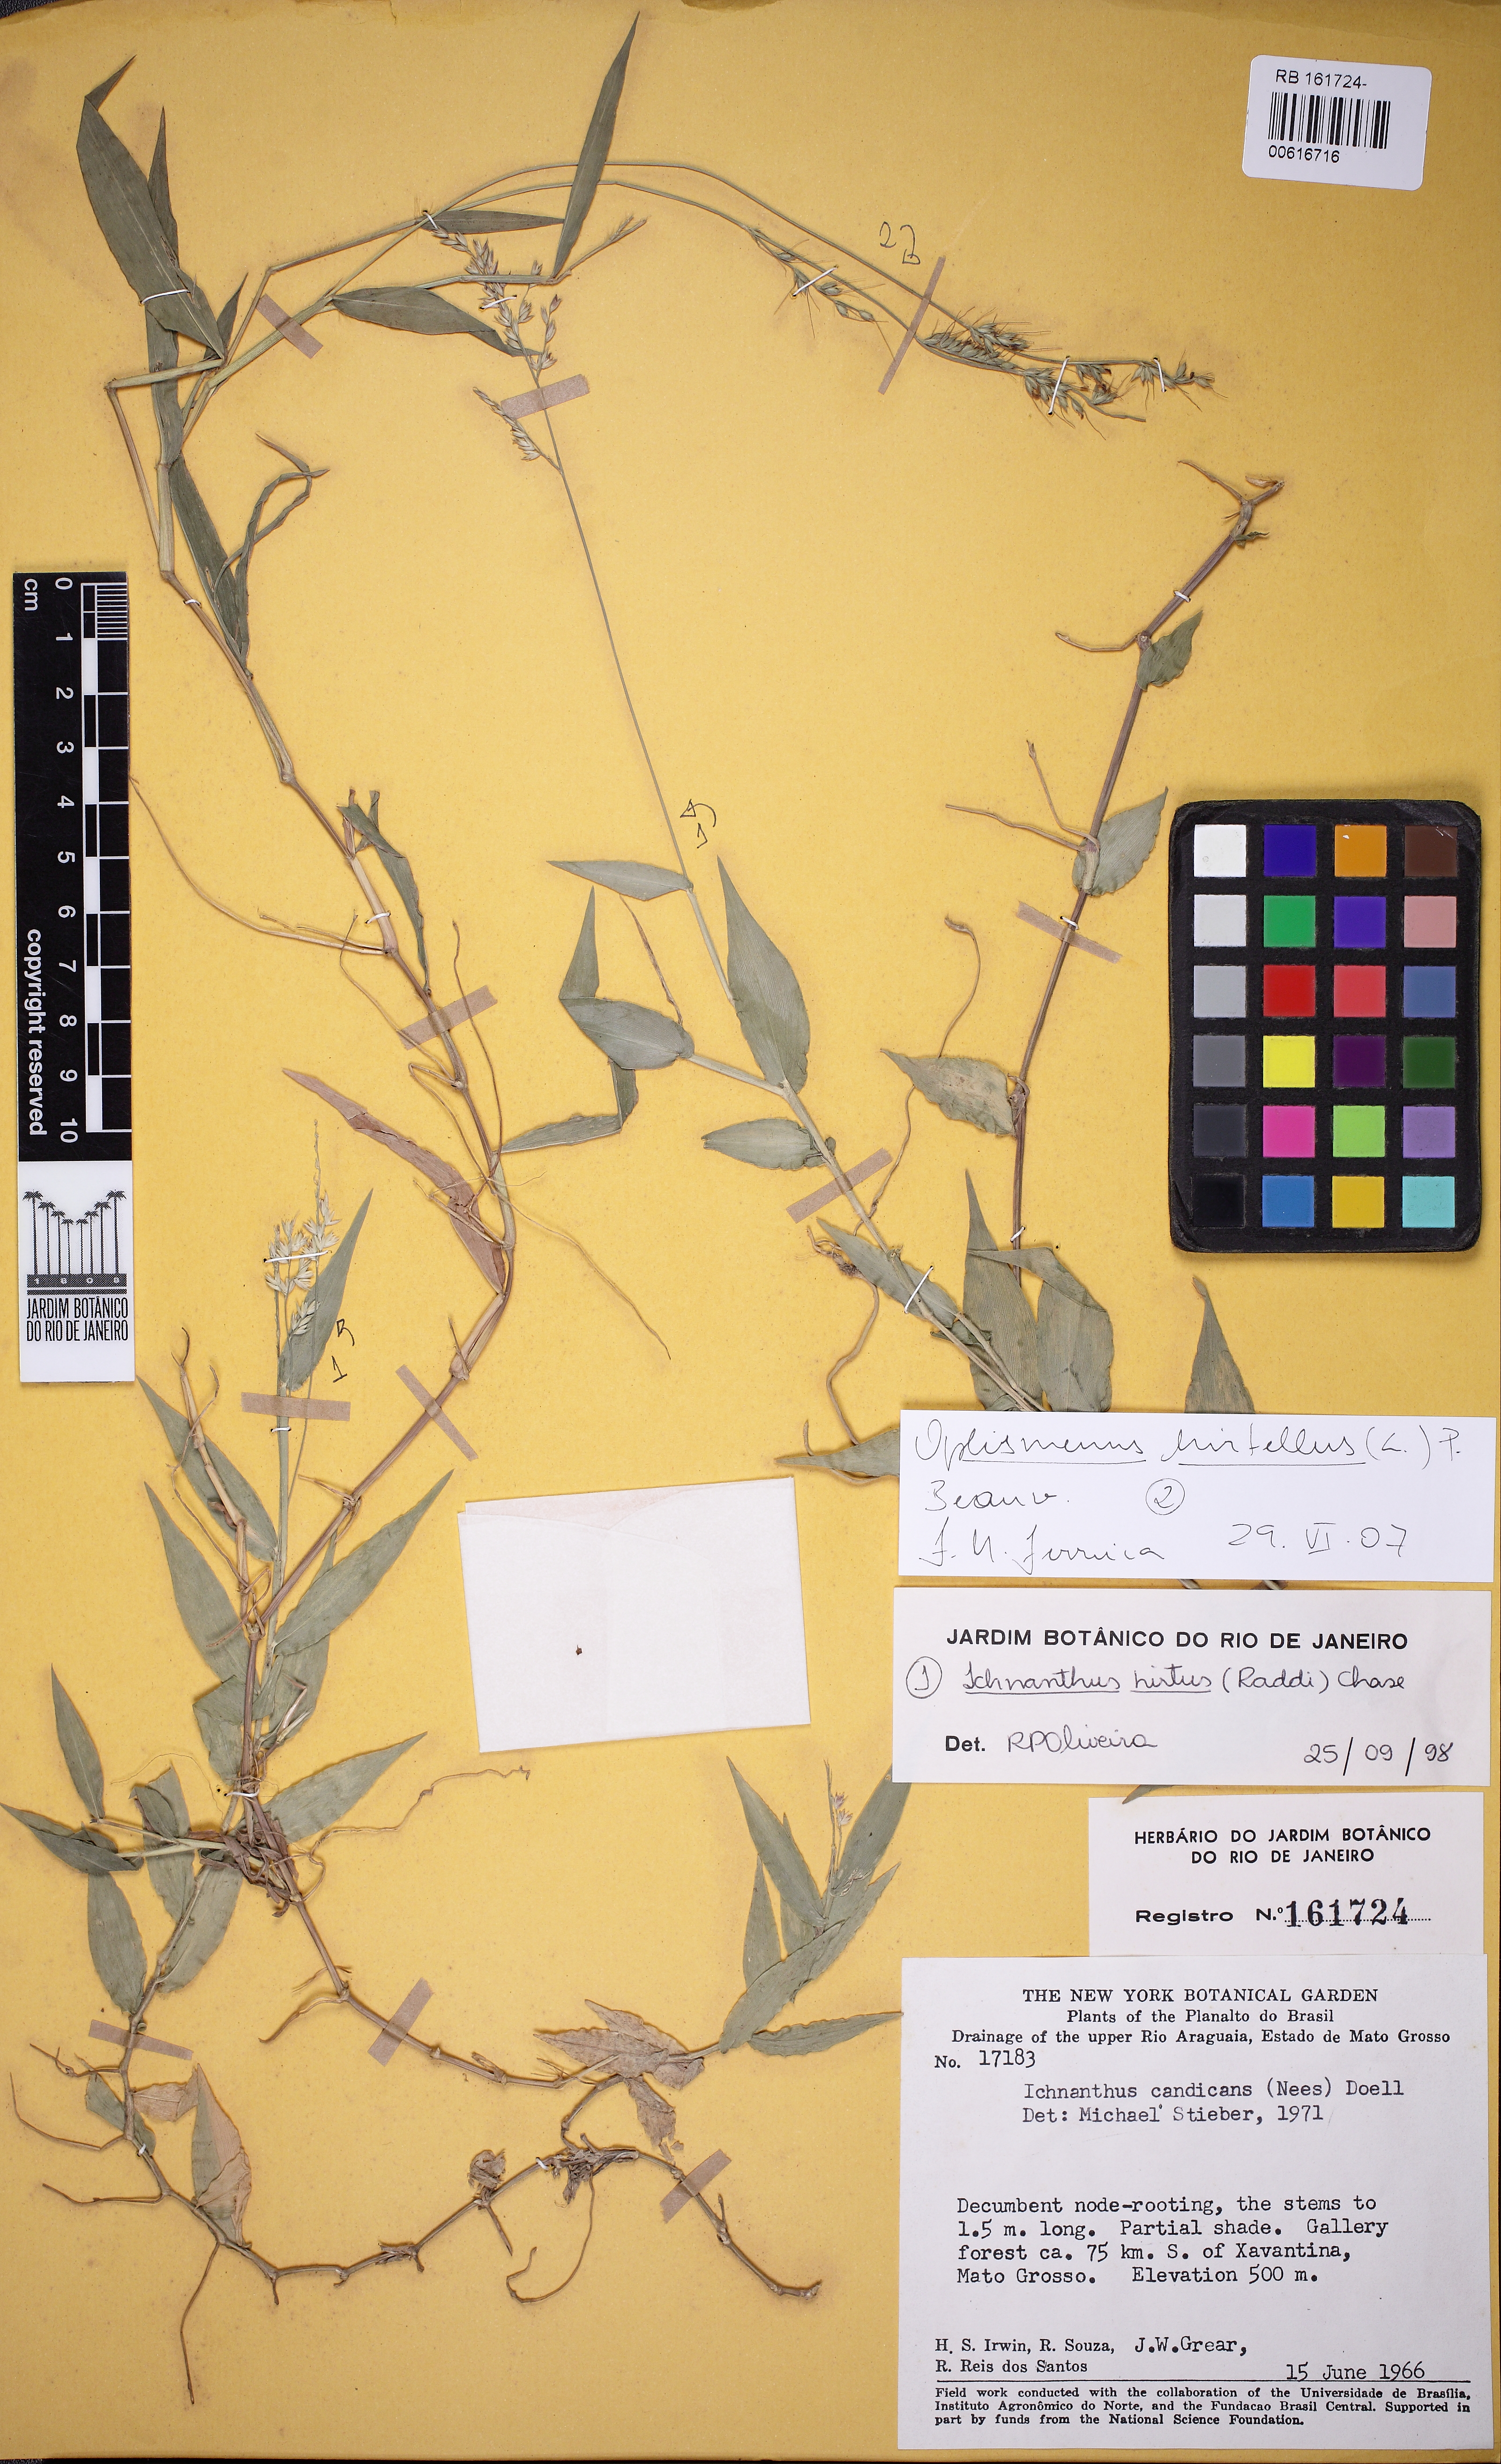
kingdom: Plantae
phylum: Tracheophyta
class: Liliopsida
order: Poales
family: Poaceae
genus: Oplismenus
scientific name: Oplismenus hirtellus
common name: Basketgrass
